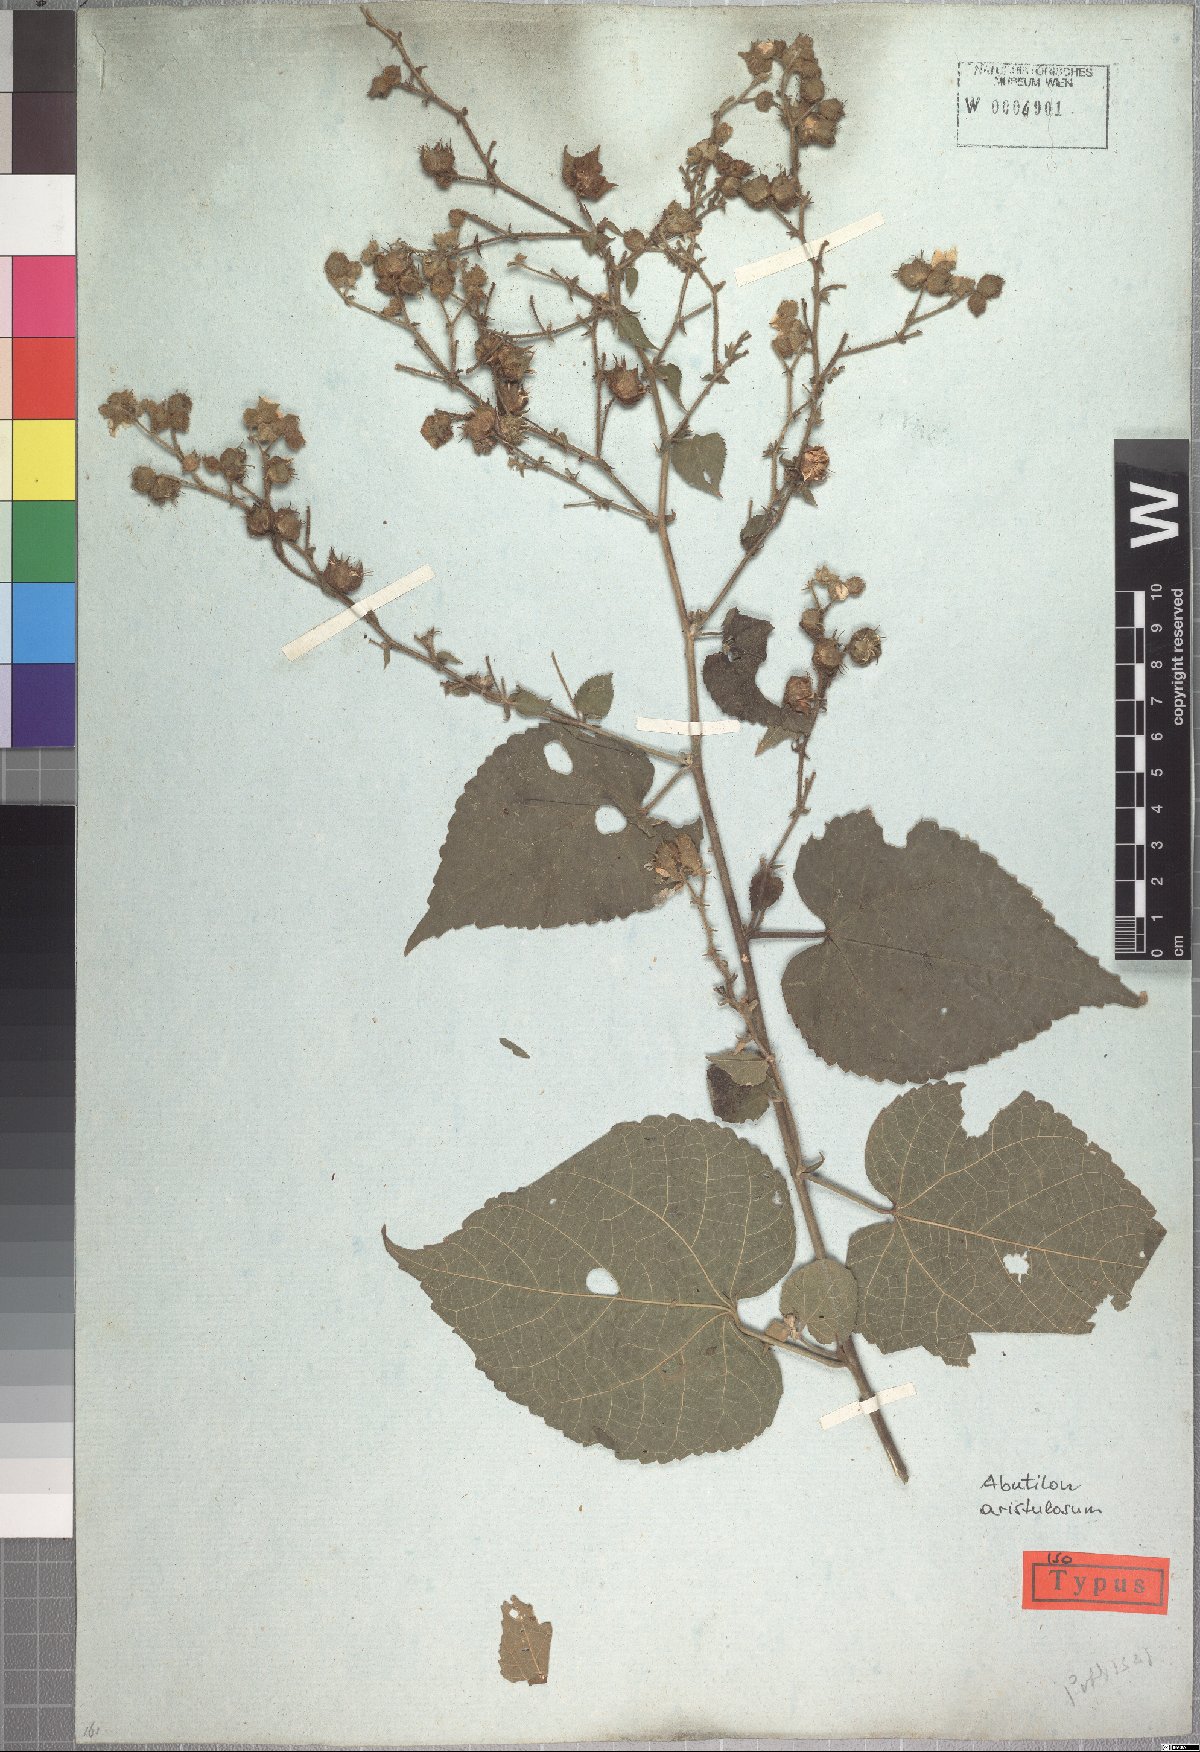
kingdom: Plantae
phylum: Tracheophyta
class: Magnoliopsida
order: Malvales
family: Malvaceae
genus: Pseudabutilon
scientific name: Pseudabutilon aristulosum
